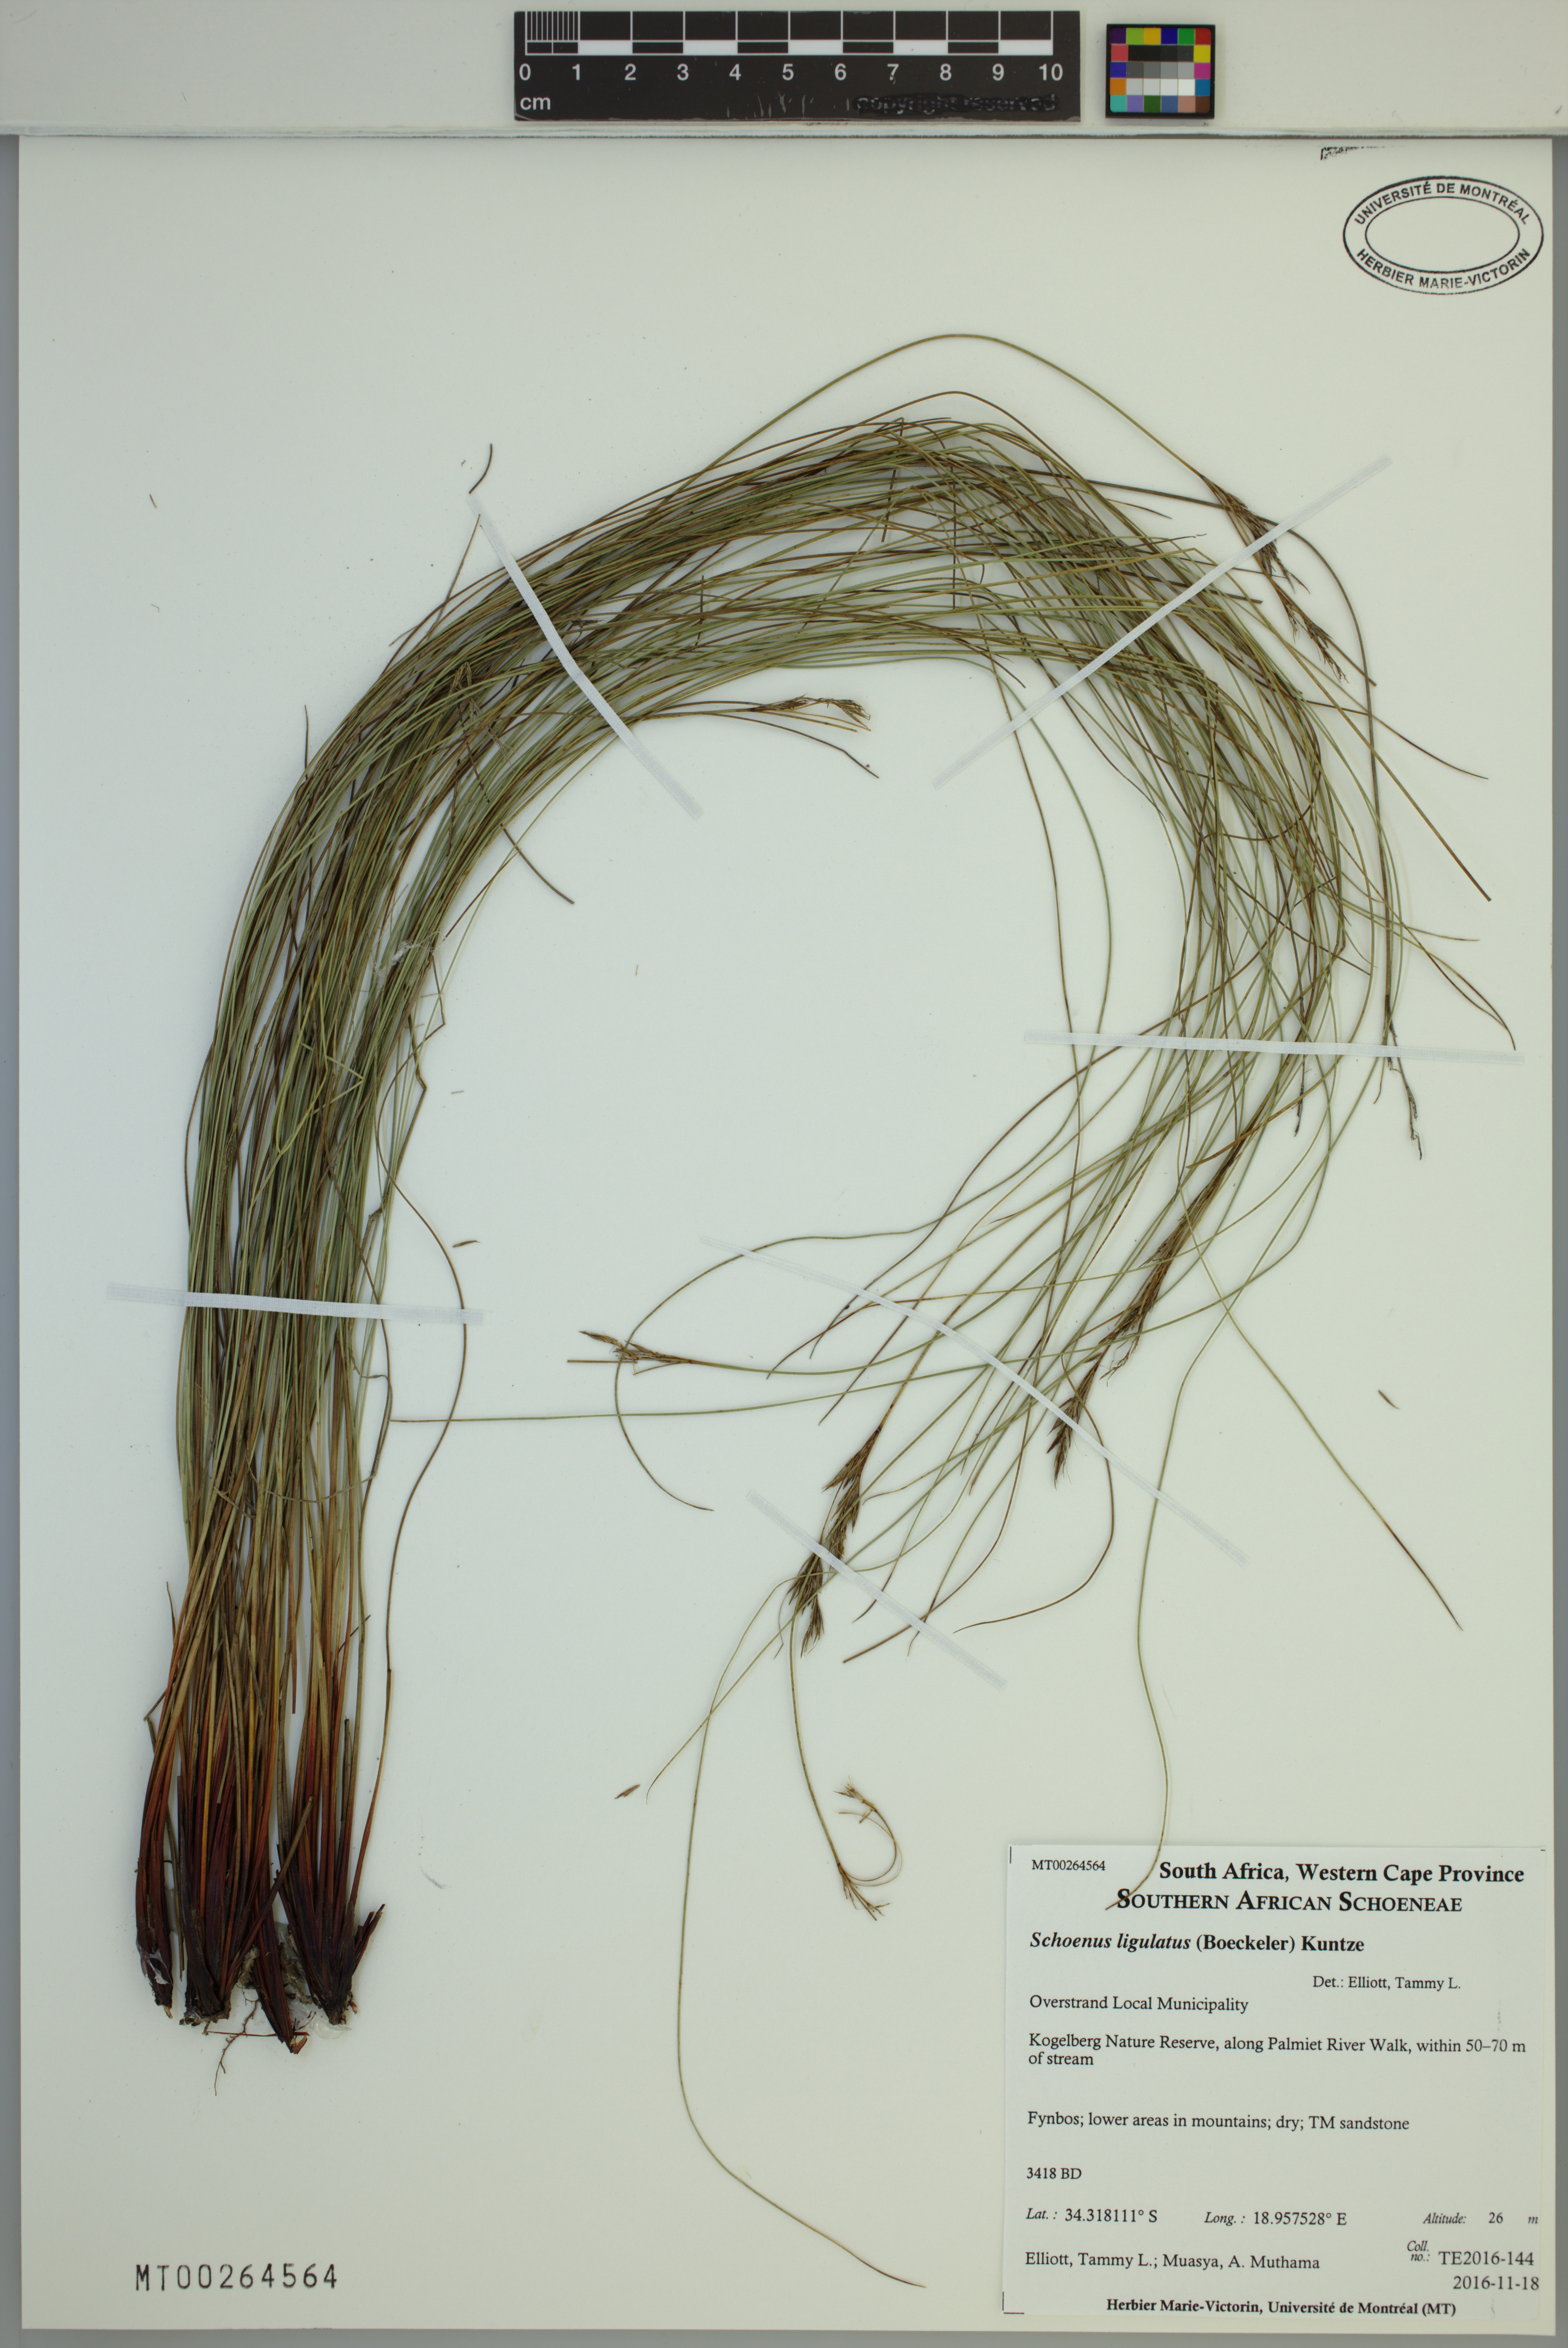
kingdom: Plantae
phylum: Tracheophyta
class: Liliopsida
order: Poales
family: Cyperaceae
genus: Schoenus
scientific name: Schoenus ligulatus
